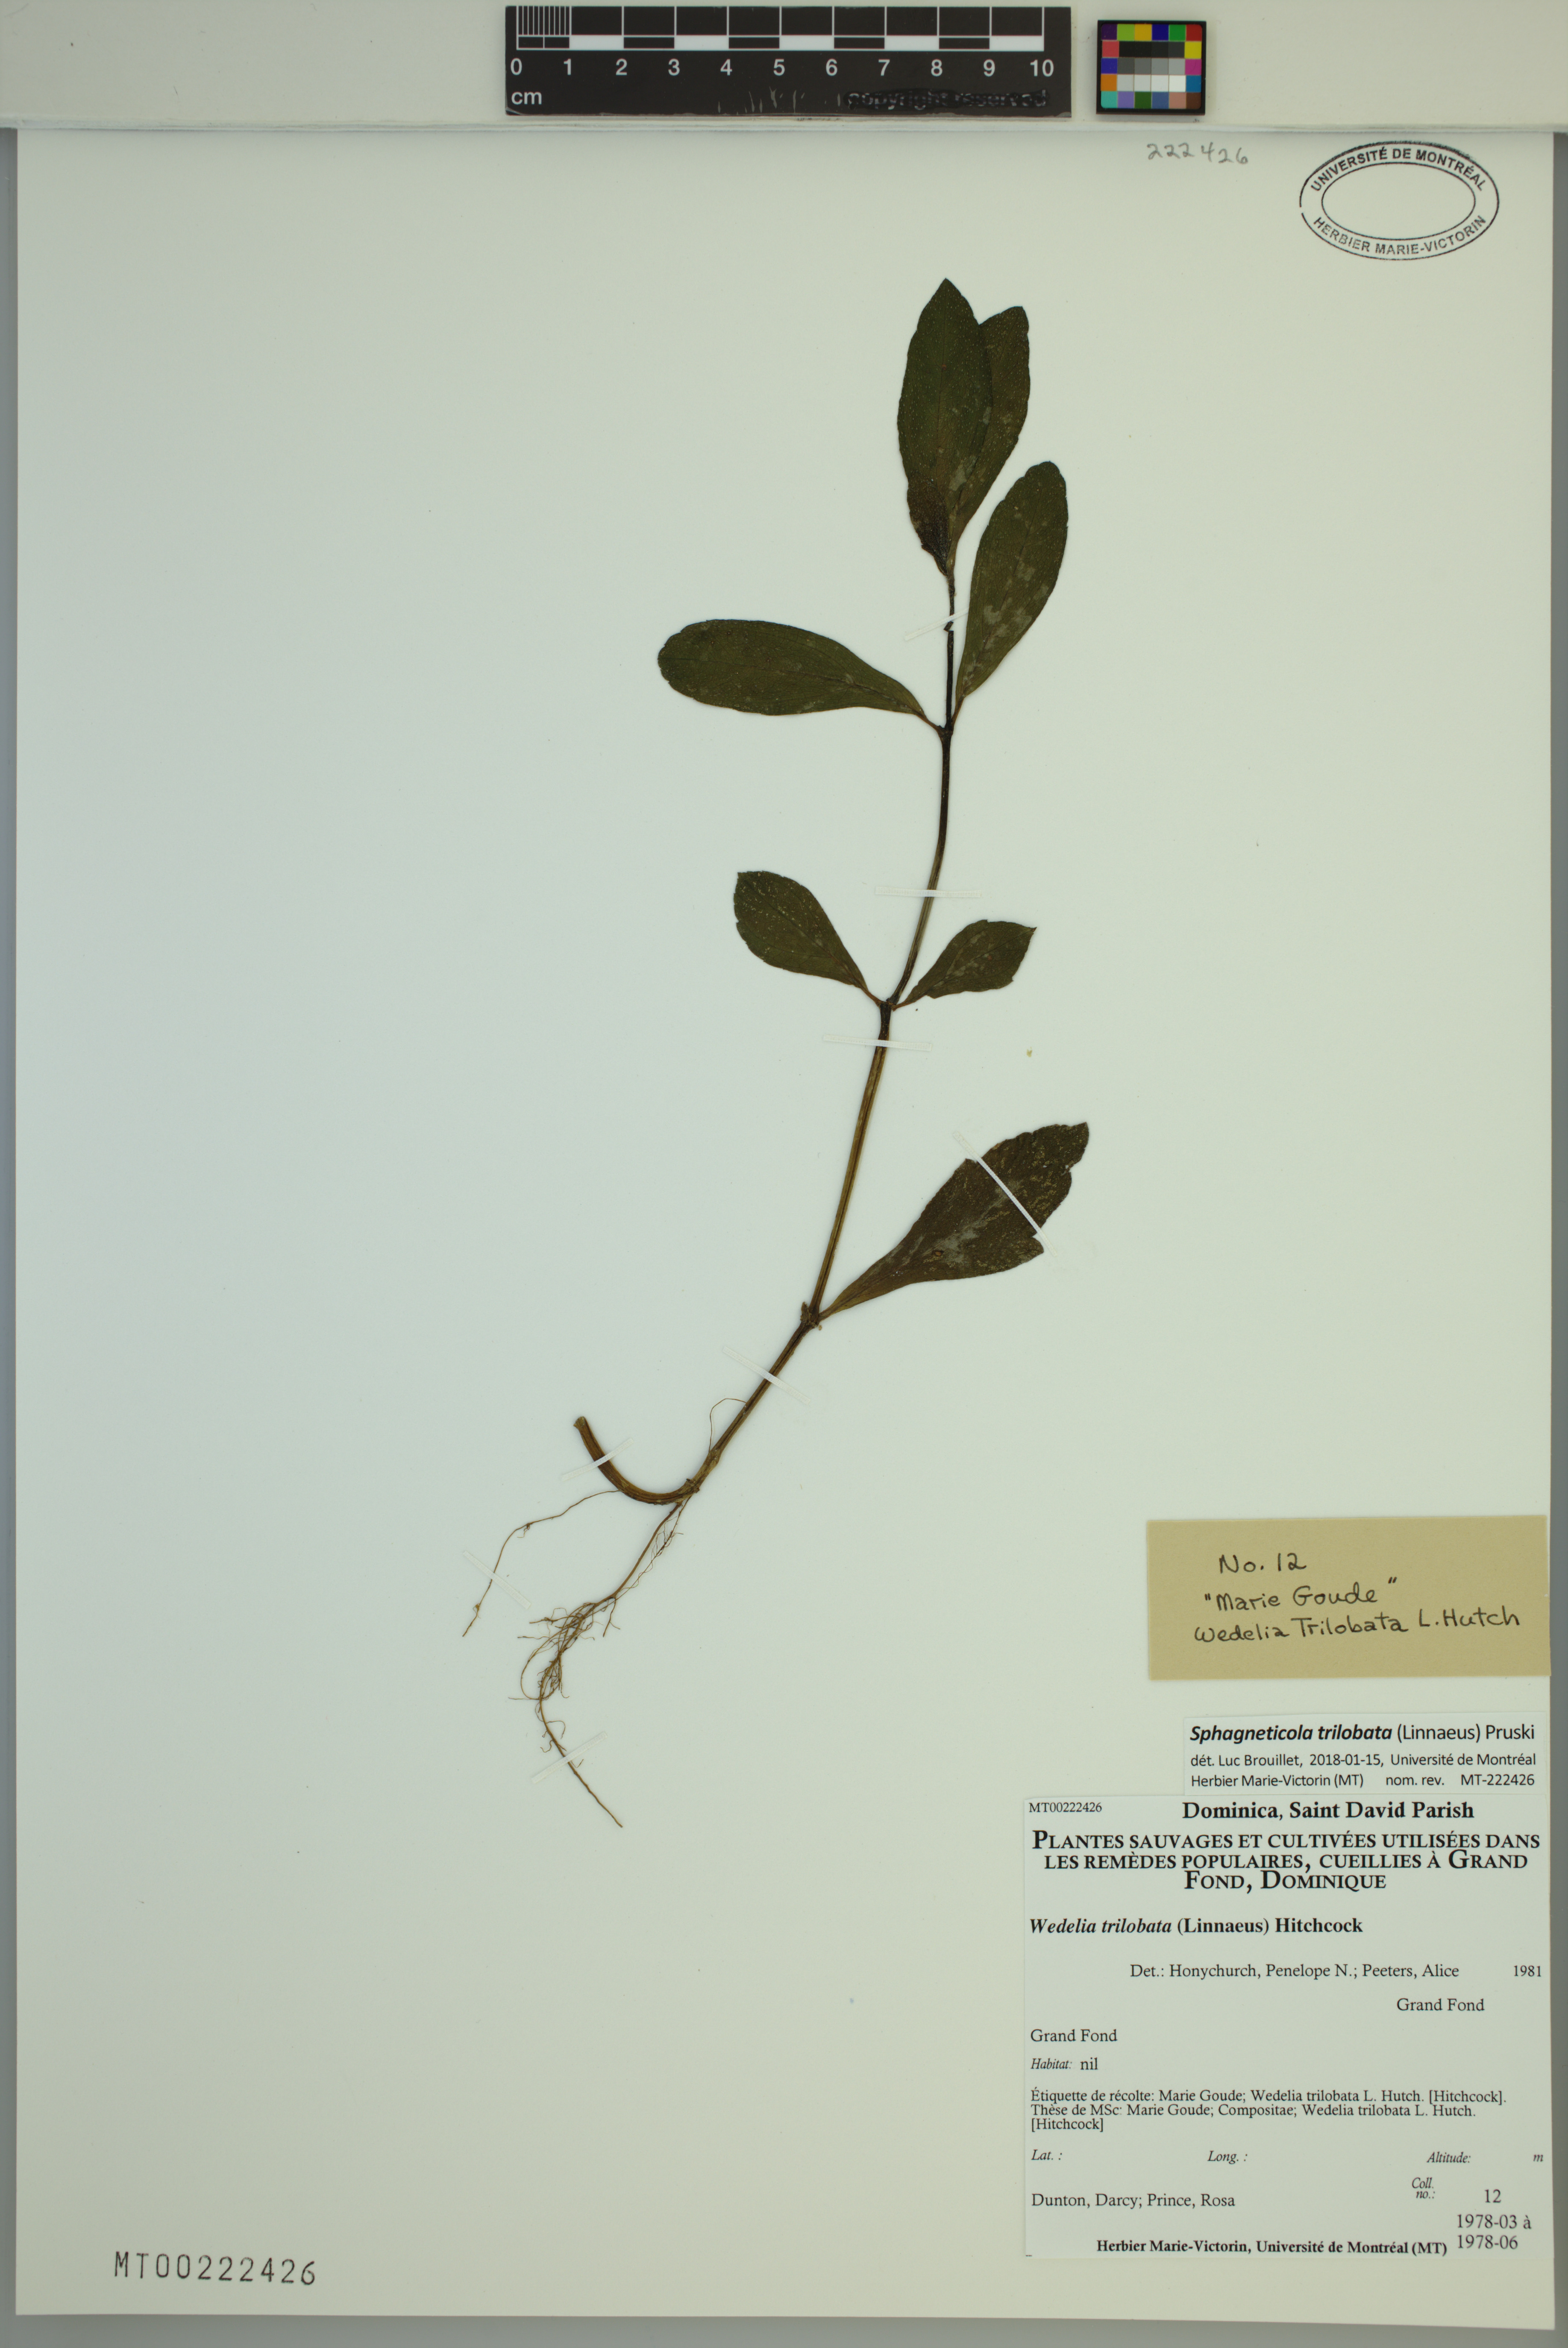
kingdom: Plantae
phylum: Tracheophyta
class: Magnoliopsida
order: Asterales
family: Asteraceae
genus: Sphagneticola
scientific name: Sphagneticola trilobata
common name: Bay biscayne creeping-oxeye
